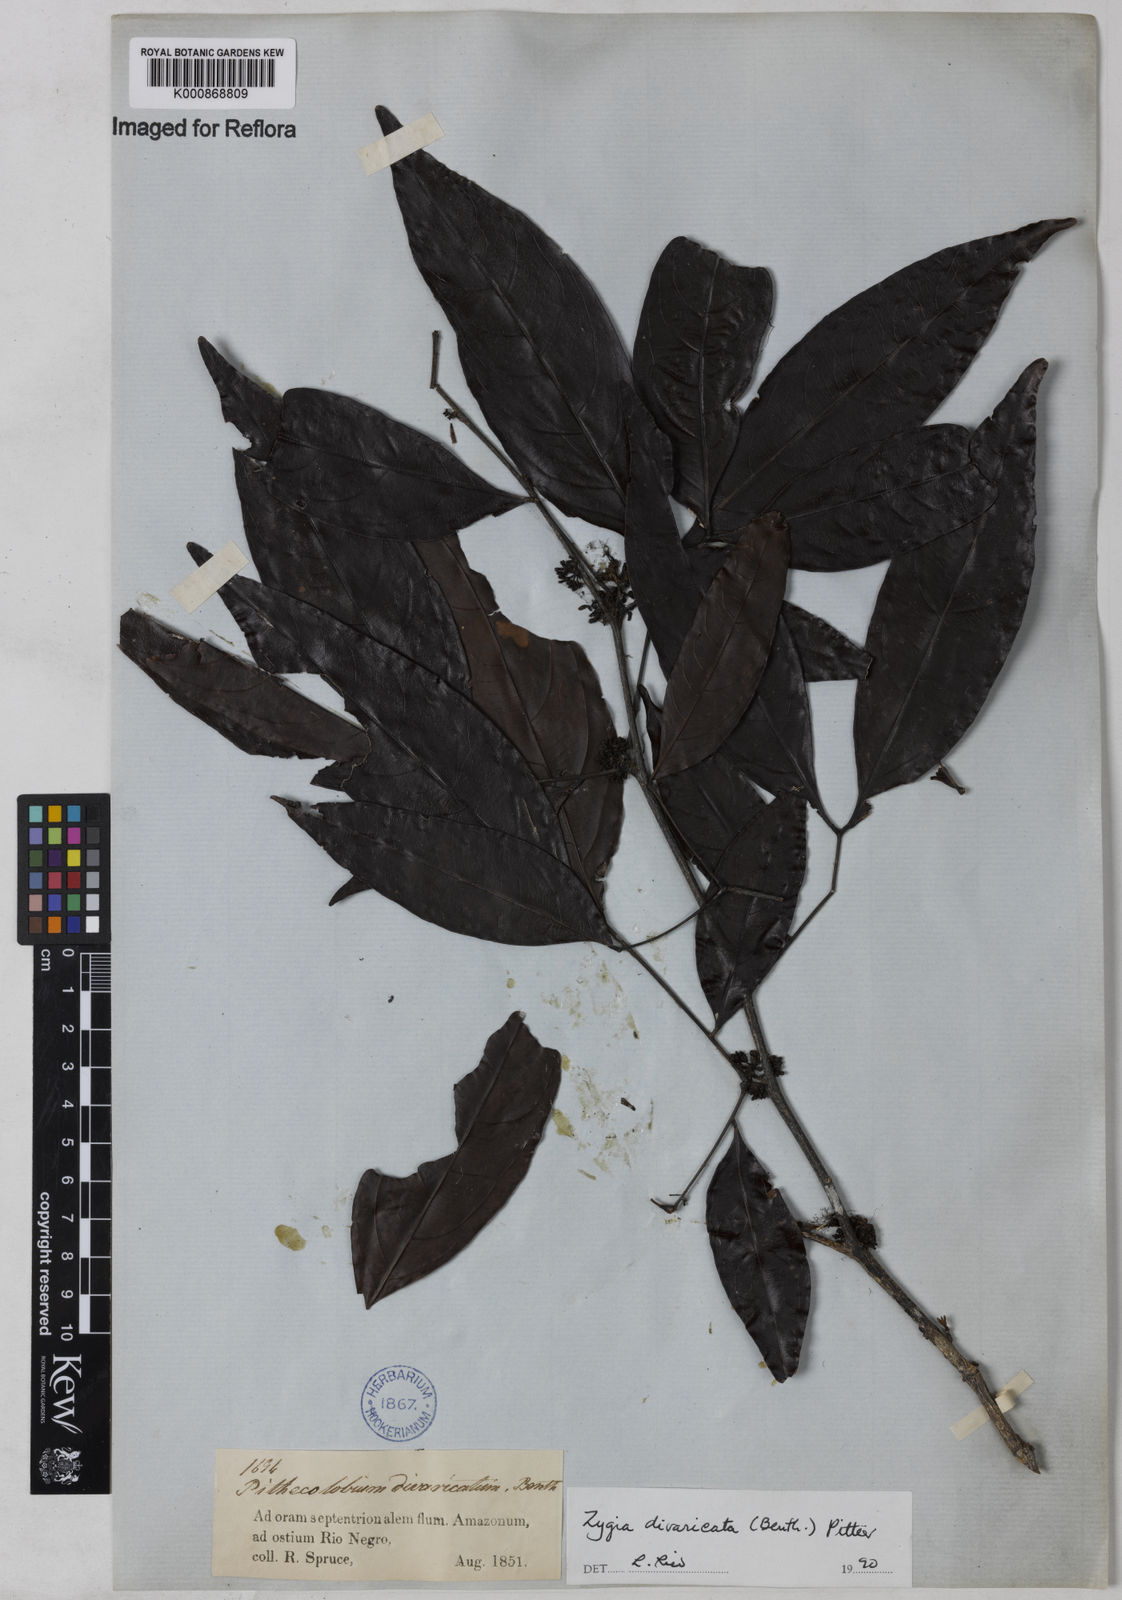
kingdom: Plantae
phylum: Tracheophyta
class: Magnoliopsida
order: Fabales
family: Fabaceae
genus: Zygia
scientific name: Zygia cataractae
